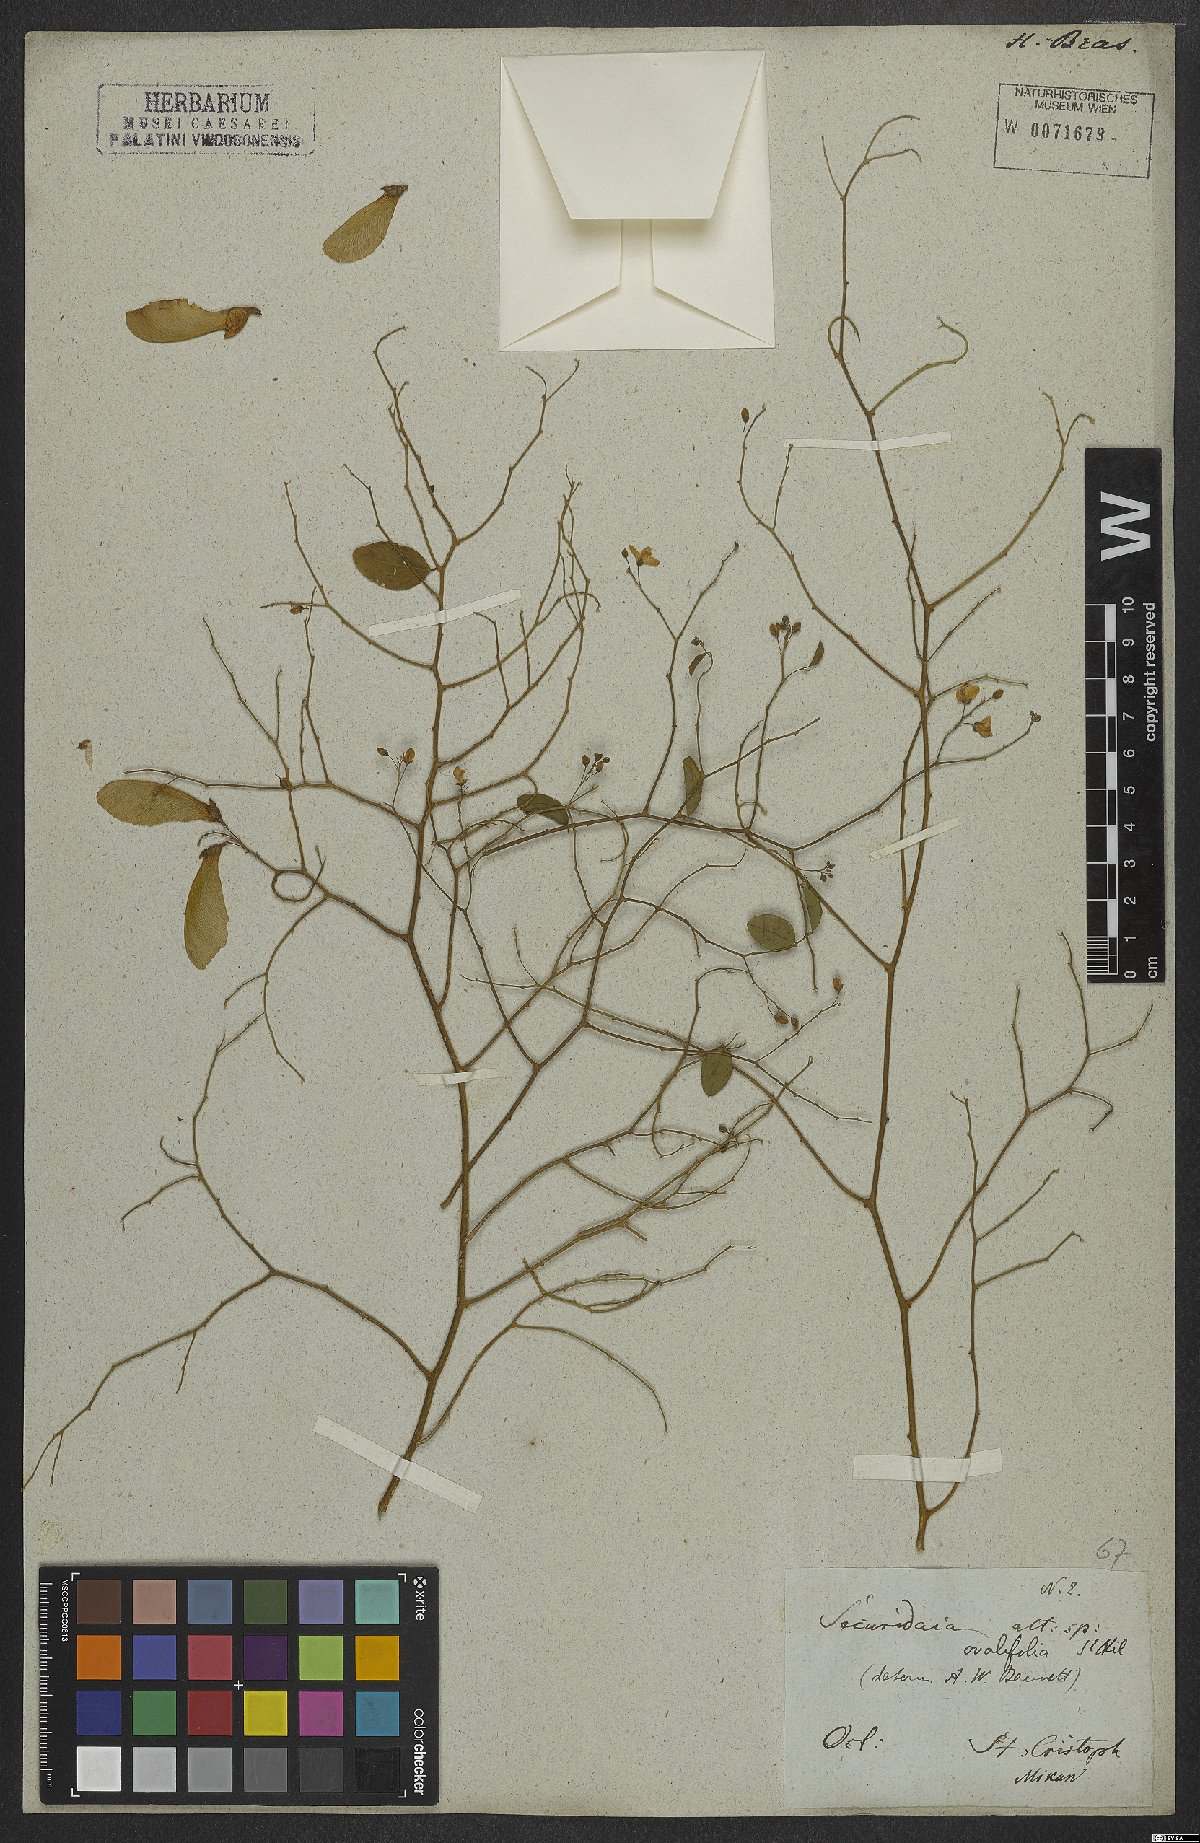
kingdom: Plantae
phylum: Tracheophyta
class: Magnoliopsida
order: Fabales
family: Polygalaceae
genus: Securidaca
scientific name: Securidaca ovalifolia
